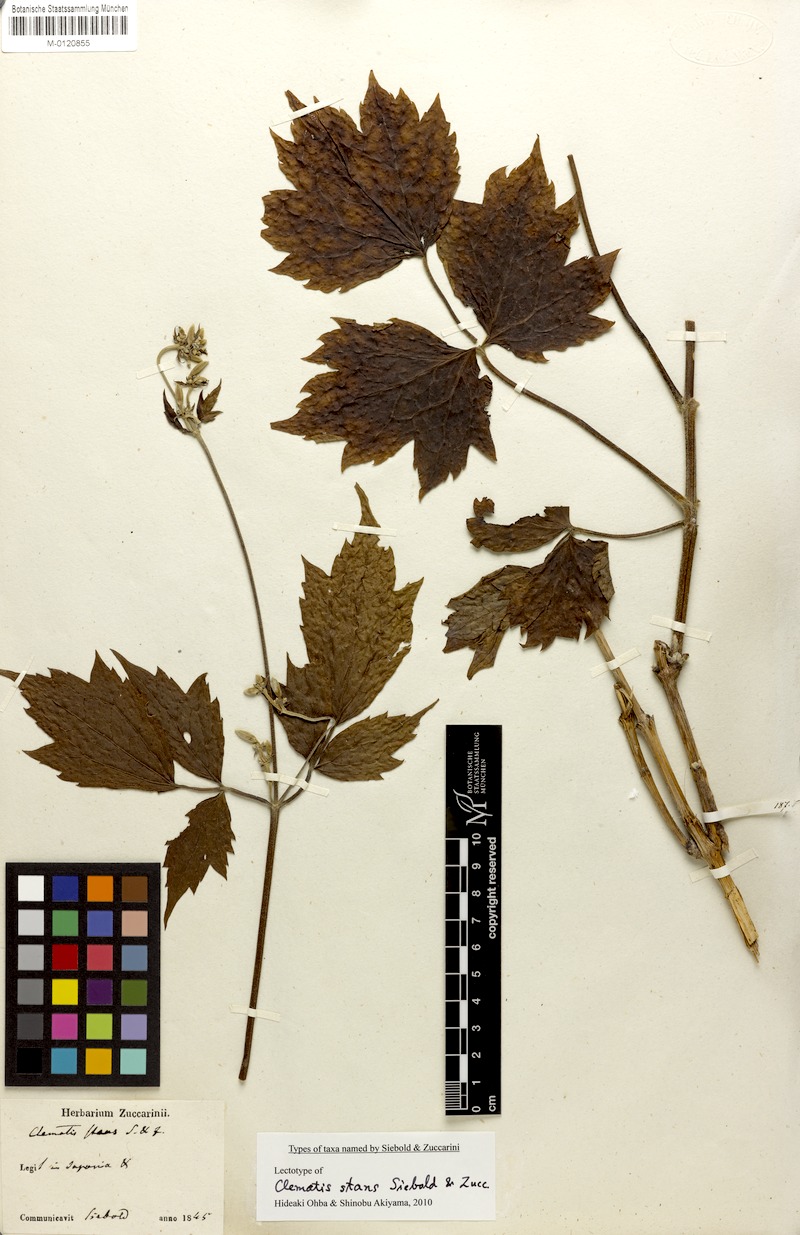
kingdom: Plantae
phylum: Tracheophyta
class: Magnoliopsida
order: Ranunculales
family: Ranunculaceae
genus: Clematis
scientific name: Clematis stans
